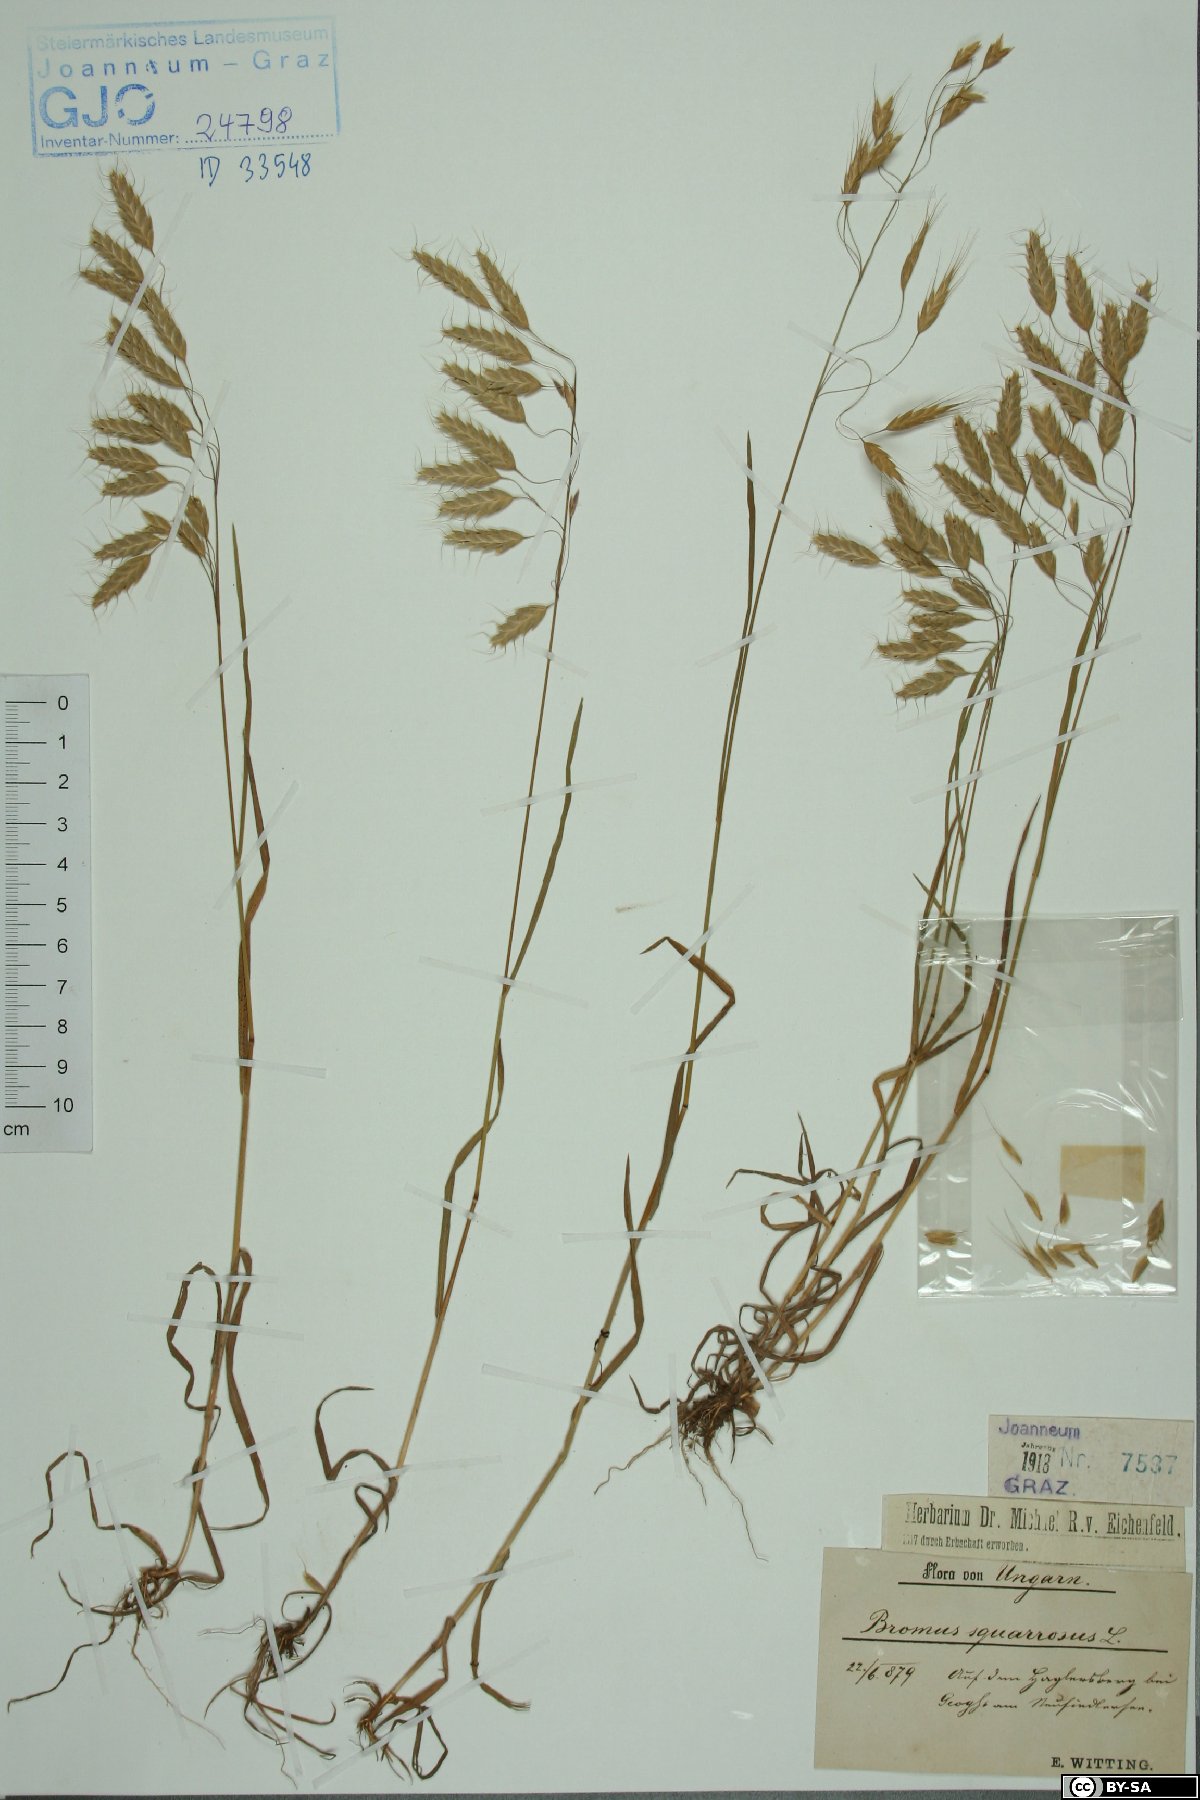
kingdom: Plantae
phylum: Tracheophyta
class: Liliopsida
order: Poales
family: Poaceae
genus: Bromus
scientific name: Bromus squarrosus
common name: Corn brome
